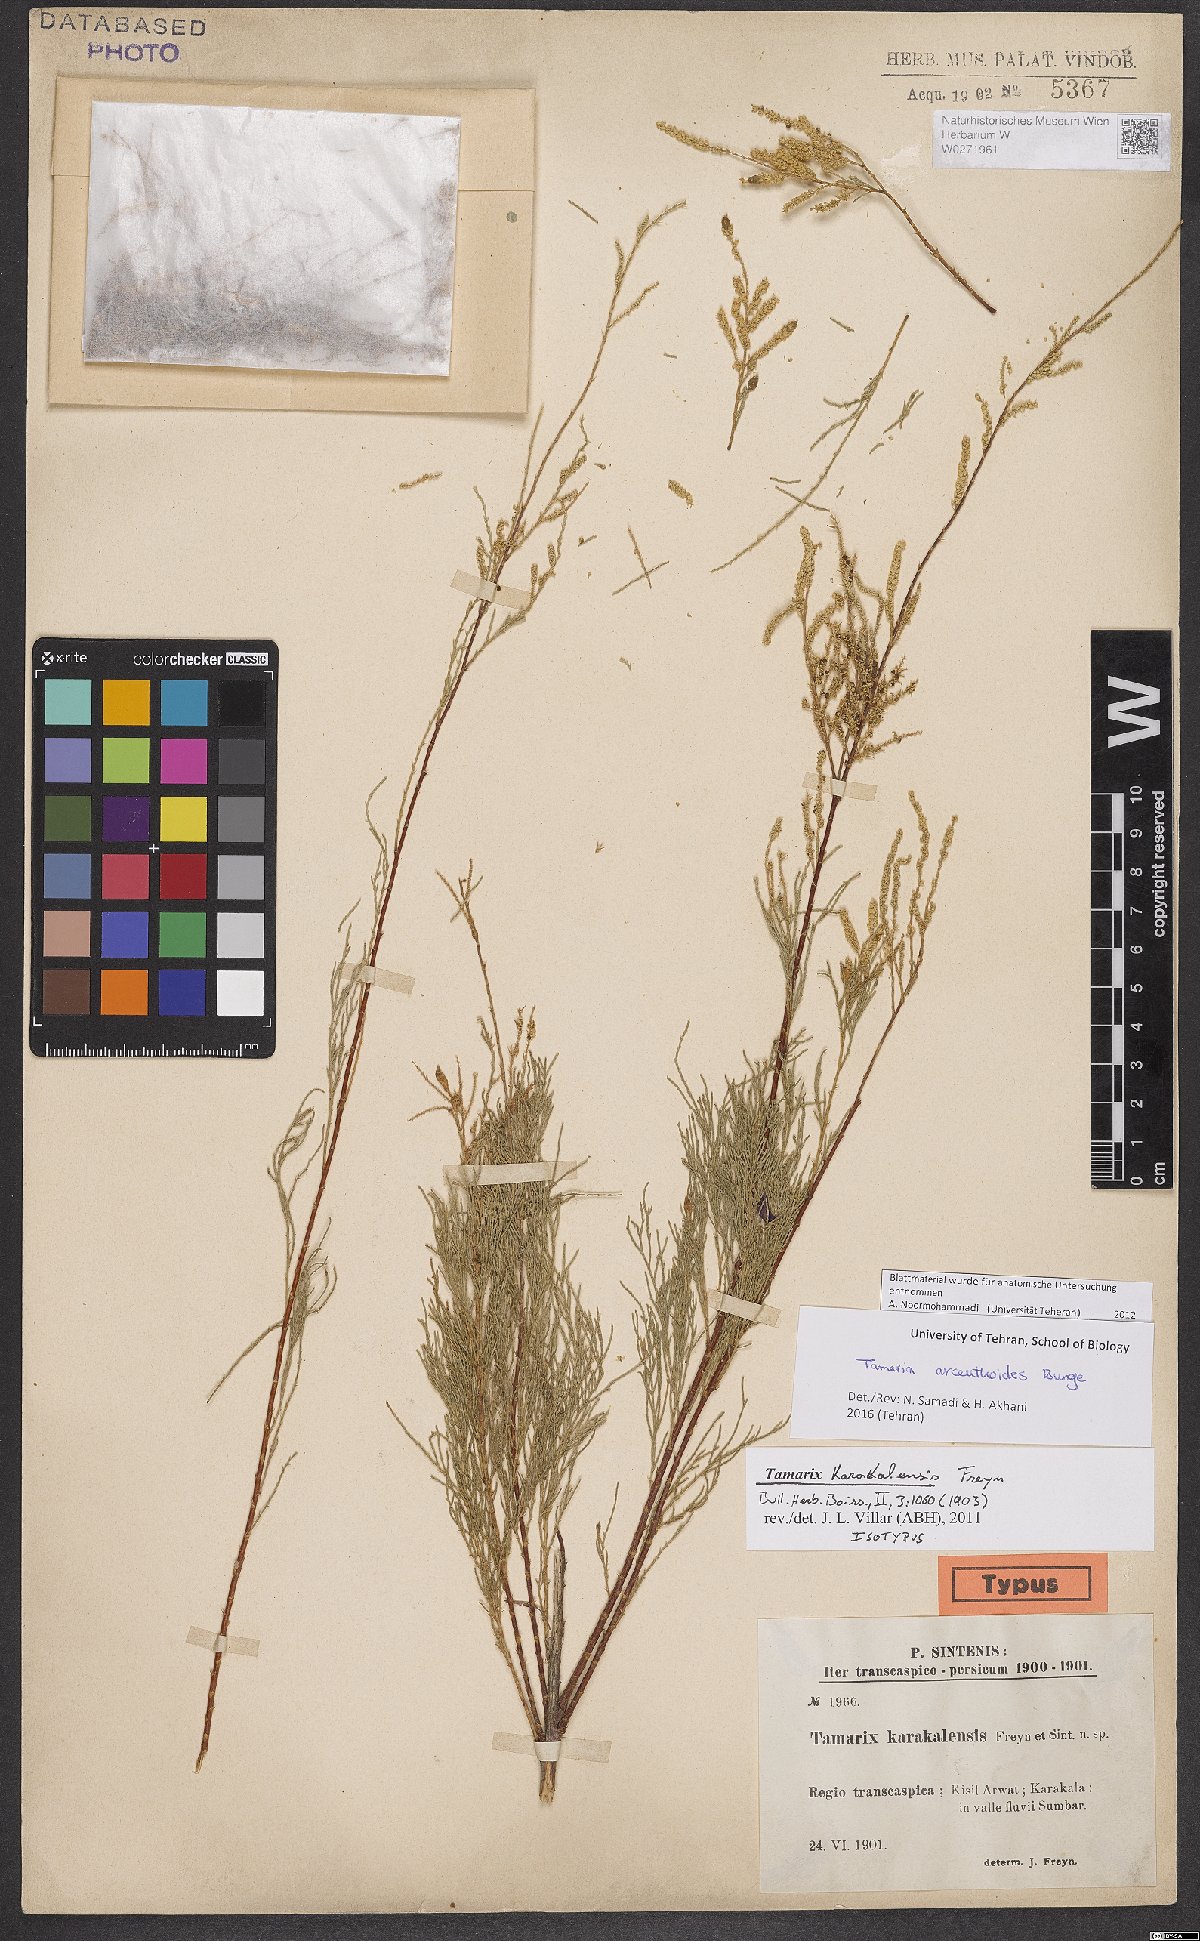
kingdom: Plantae
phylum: Tracheophyta
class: Magnoliopsida
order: Caryophyllales
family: Tamaricaceae
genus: Tamarix
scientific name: Tamarix florida
